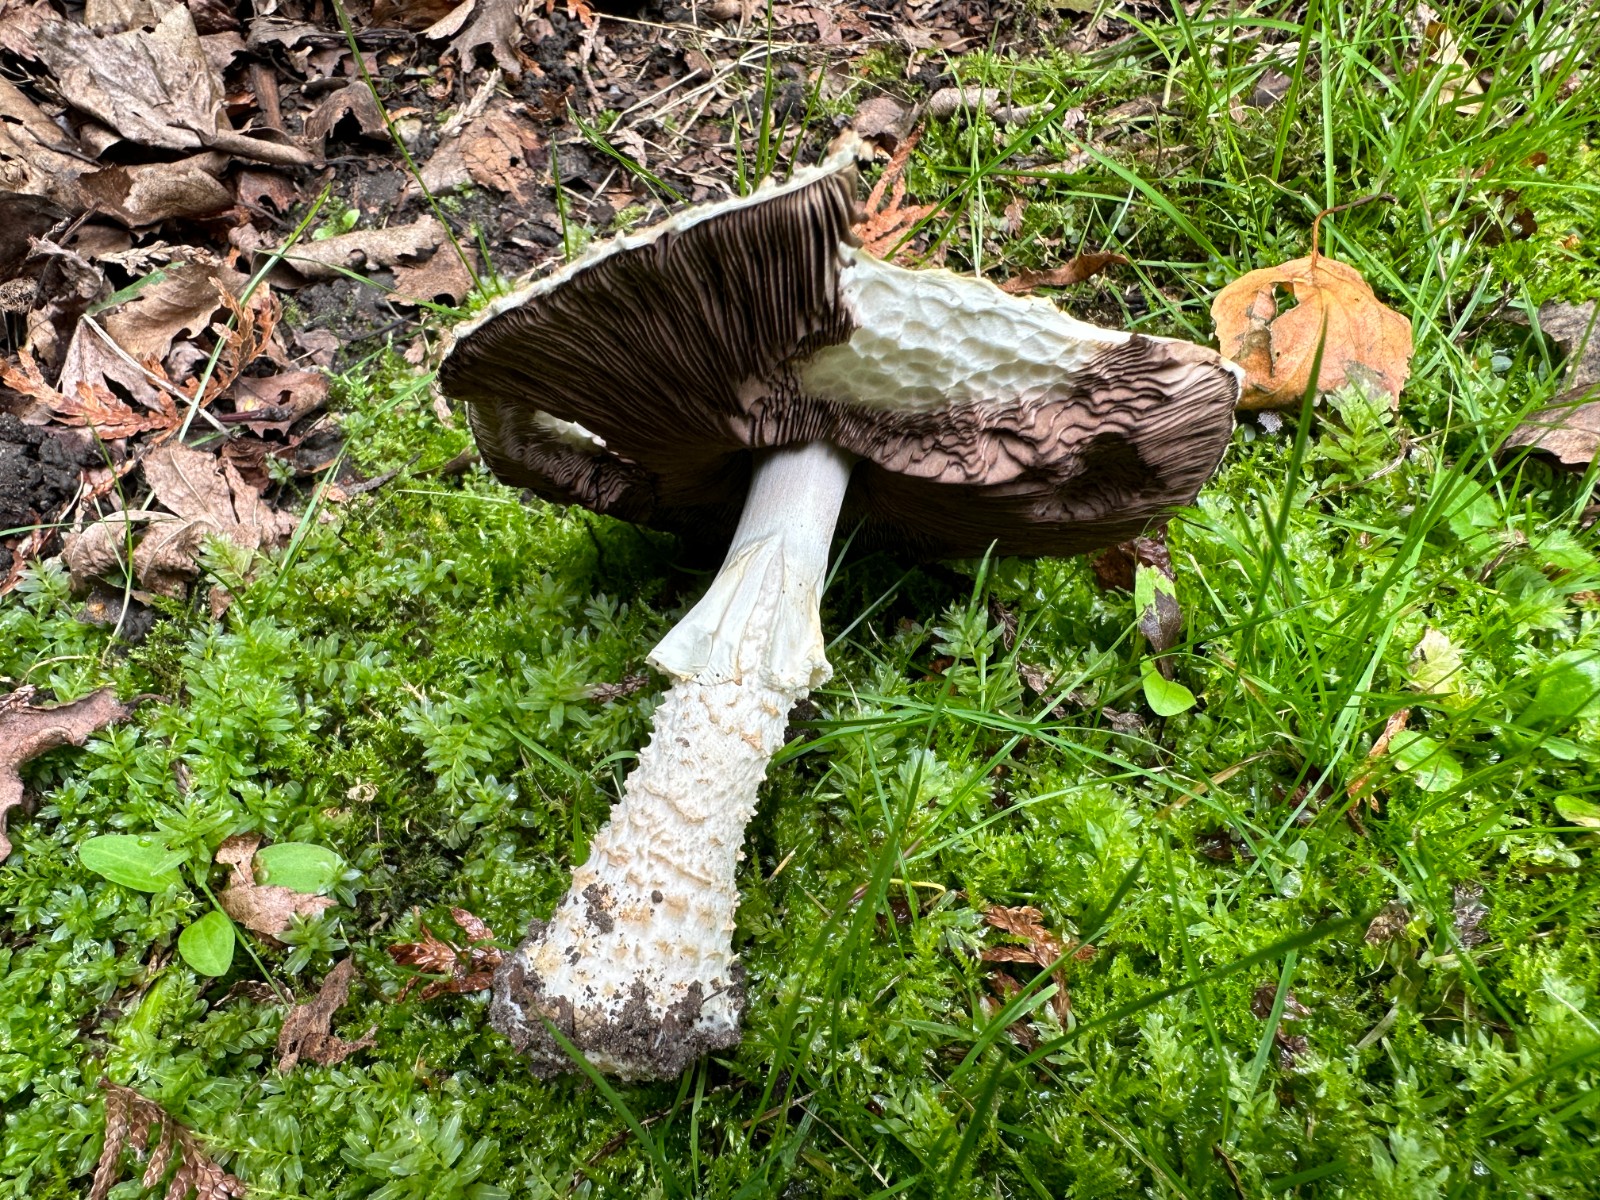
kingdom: Fungi
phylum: Basidiomycota
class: Agaricomycetes
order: Agaricales
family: Agaricaceae
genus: Agaricus
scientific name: Agaricus augustus
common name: prægtig champignon
